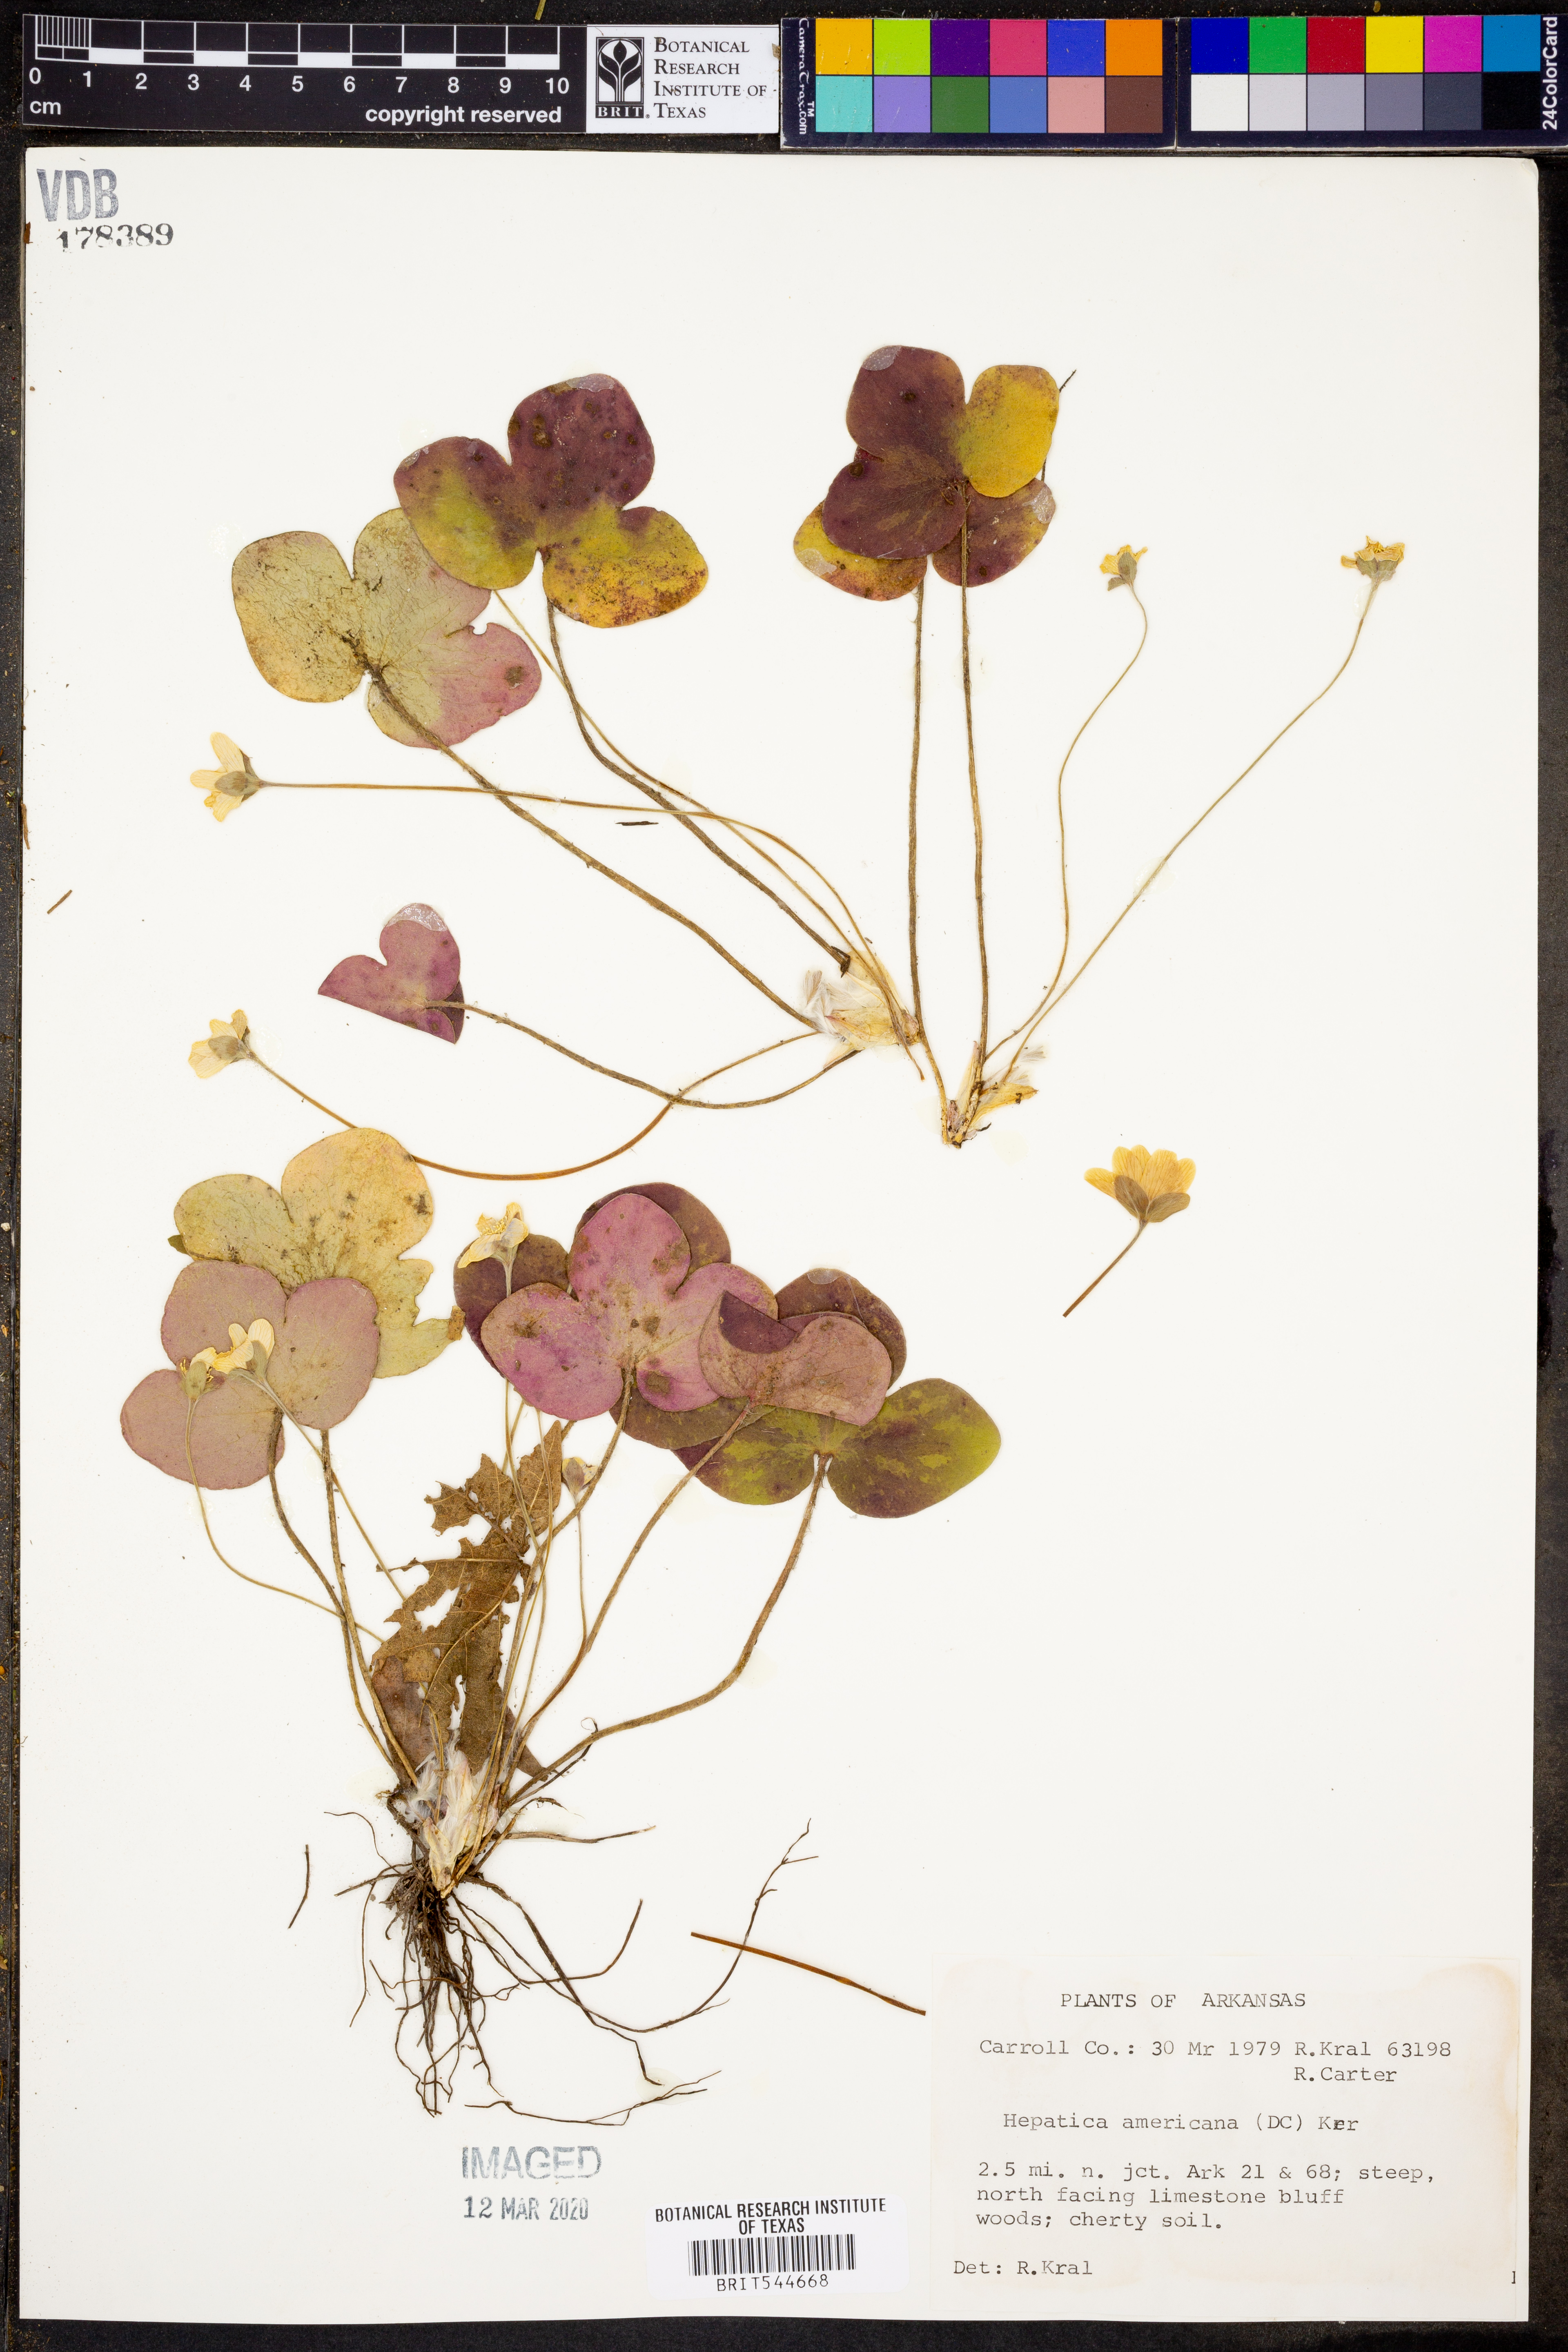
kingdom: Plantae
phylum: Tracheophyta
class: Magnoliopsida
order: Ranunculales
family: Ranunculaceae
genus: Hepatica
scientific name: Hepatica americana
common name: American hepatica
